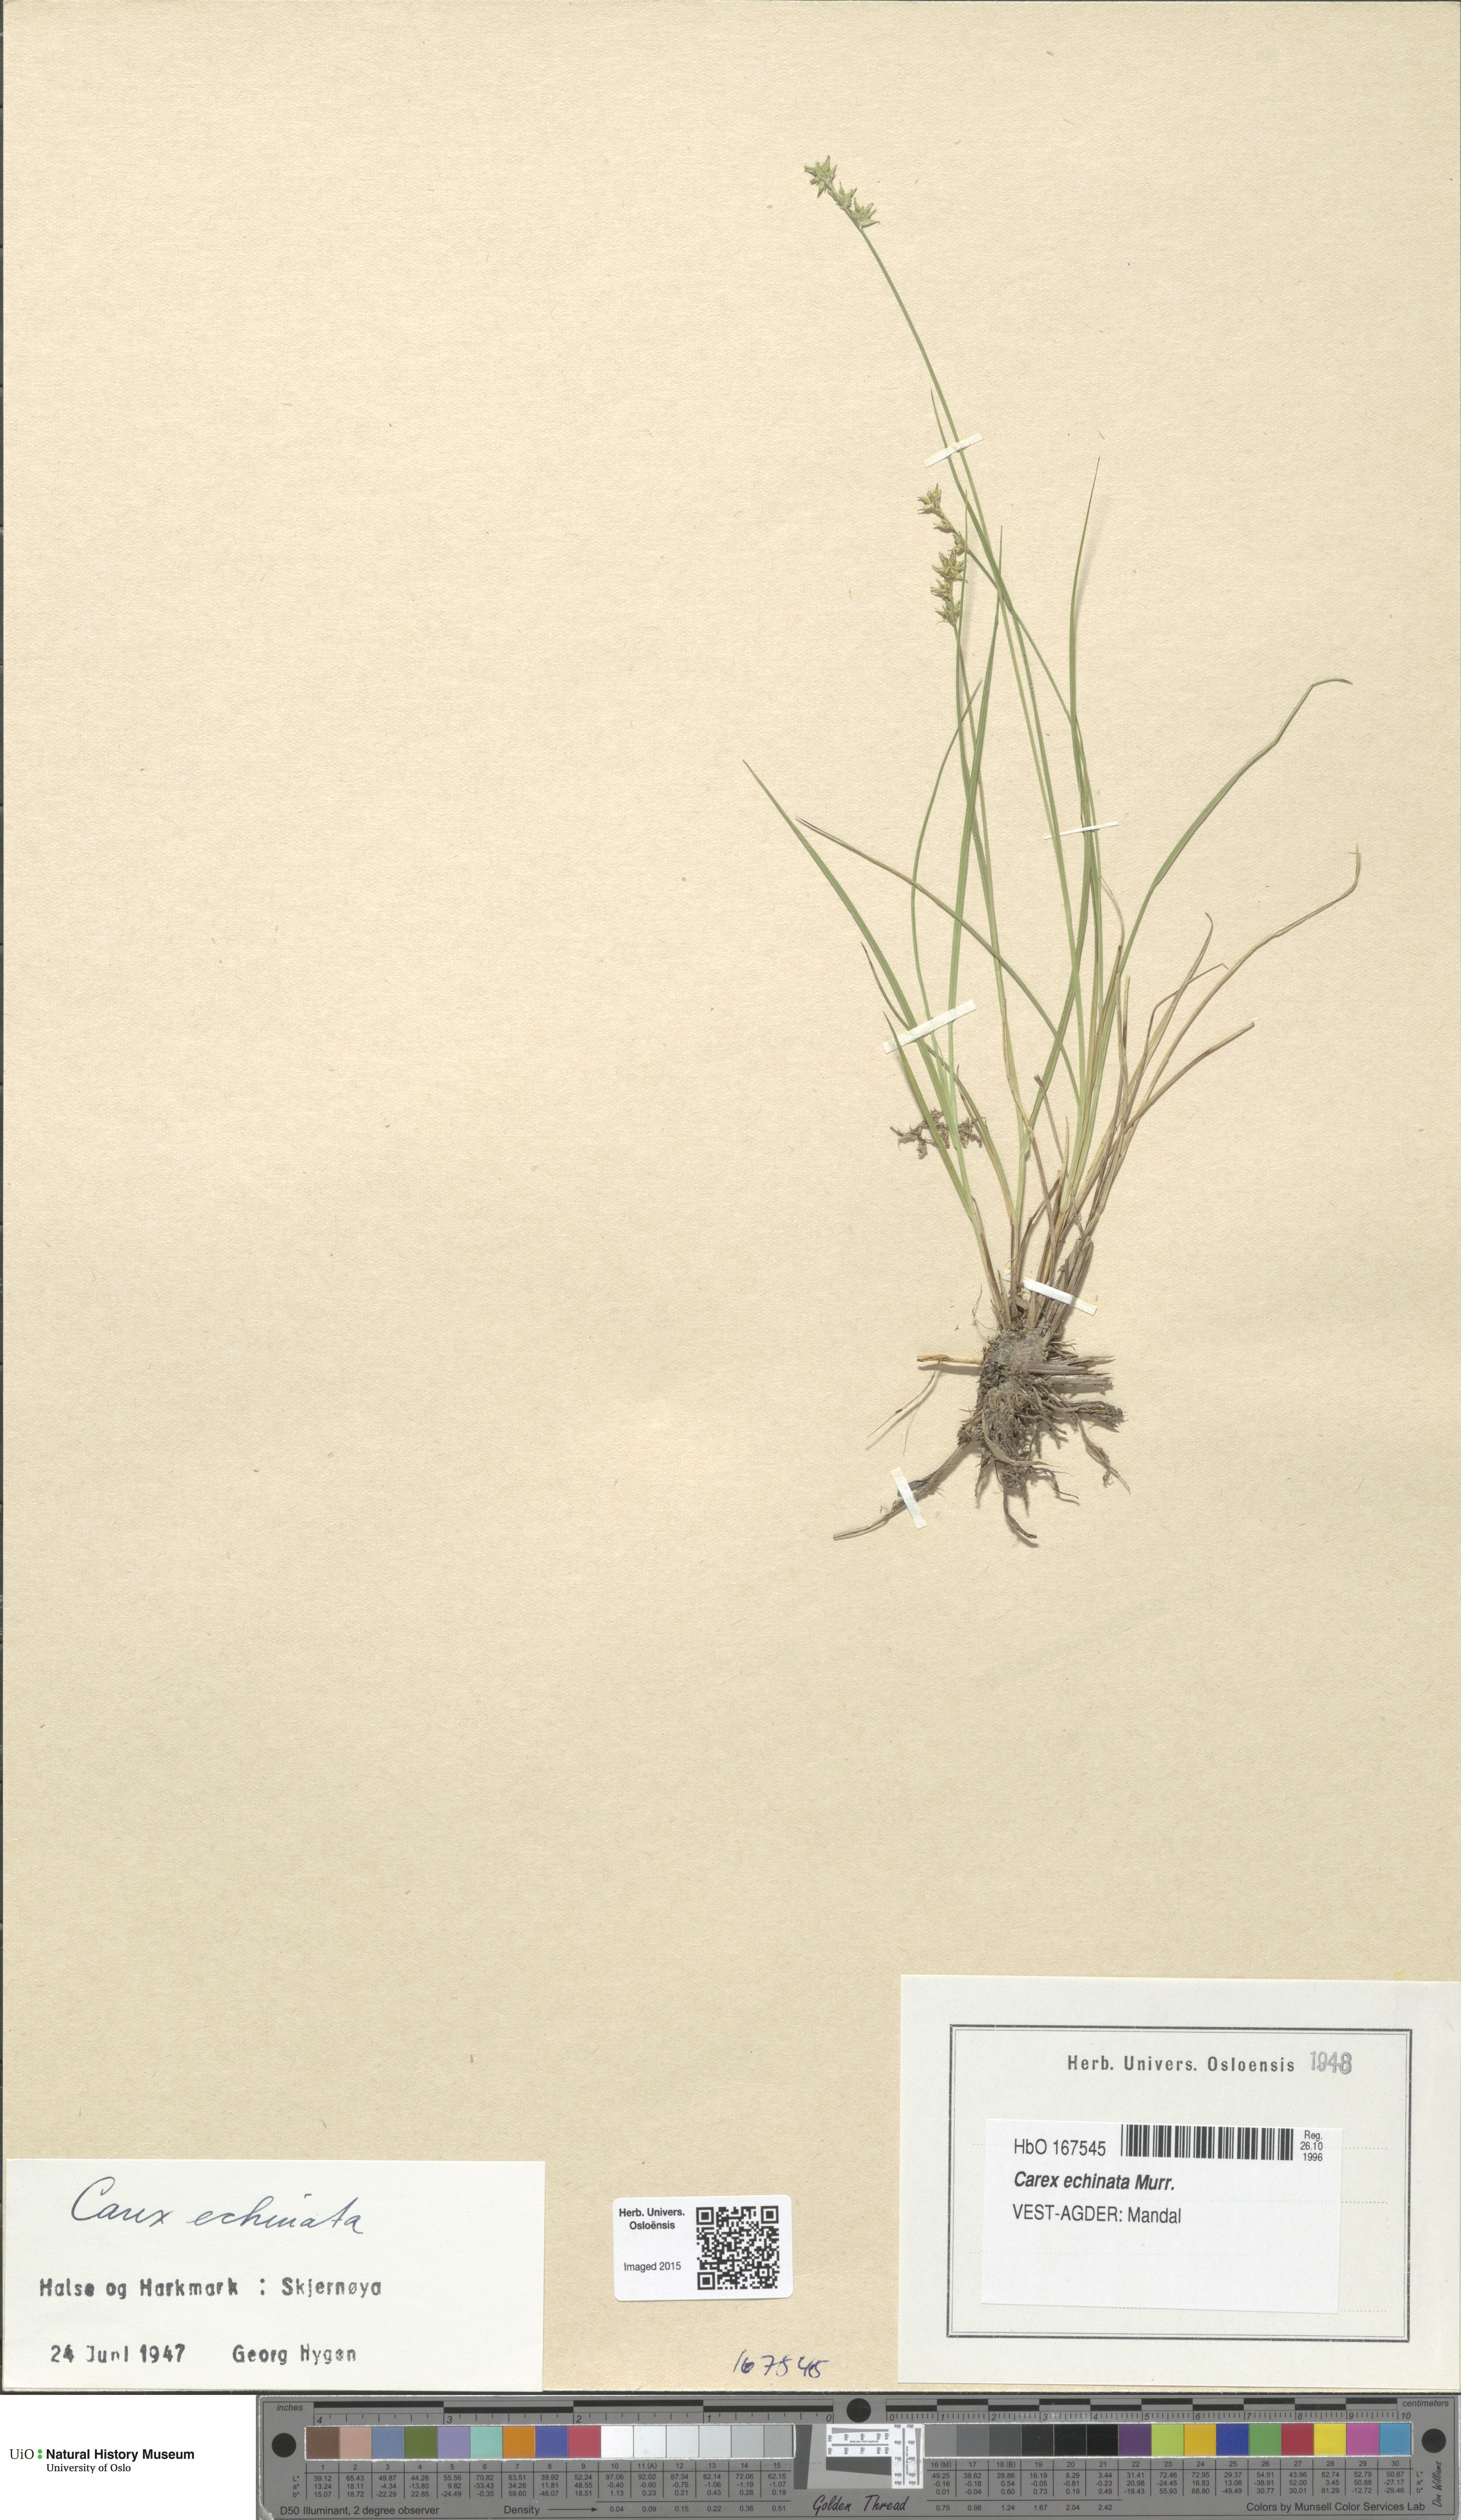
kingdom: Plantae
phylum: Tracheophyta
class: Liliopsida
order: Poales
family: Cyperaceae
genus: Carex
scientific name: Carex echinata
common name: Star sedge
